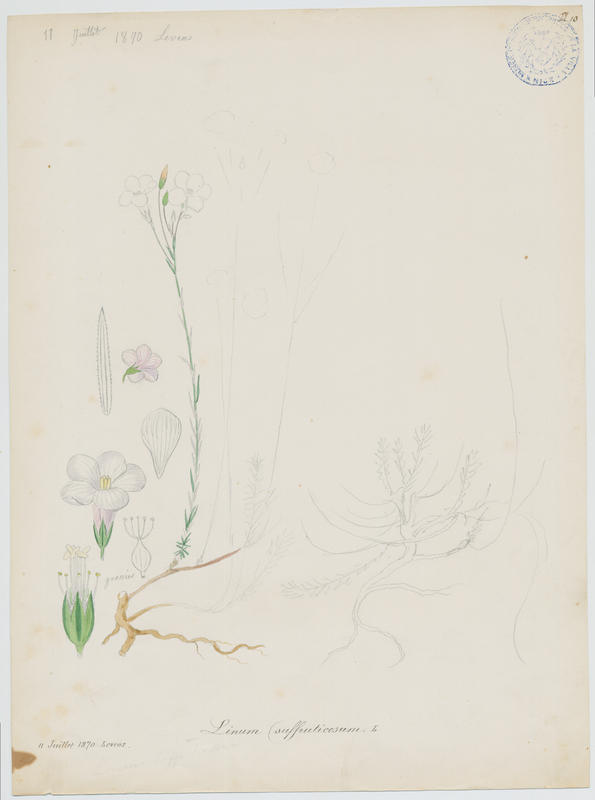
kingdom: Plantae
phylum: Tracheophyta
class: Magnoliopsida
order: Malpighiales
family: Linaceae
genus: Linum
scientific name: Linum appressum
